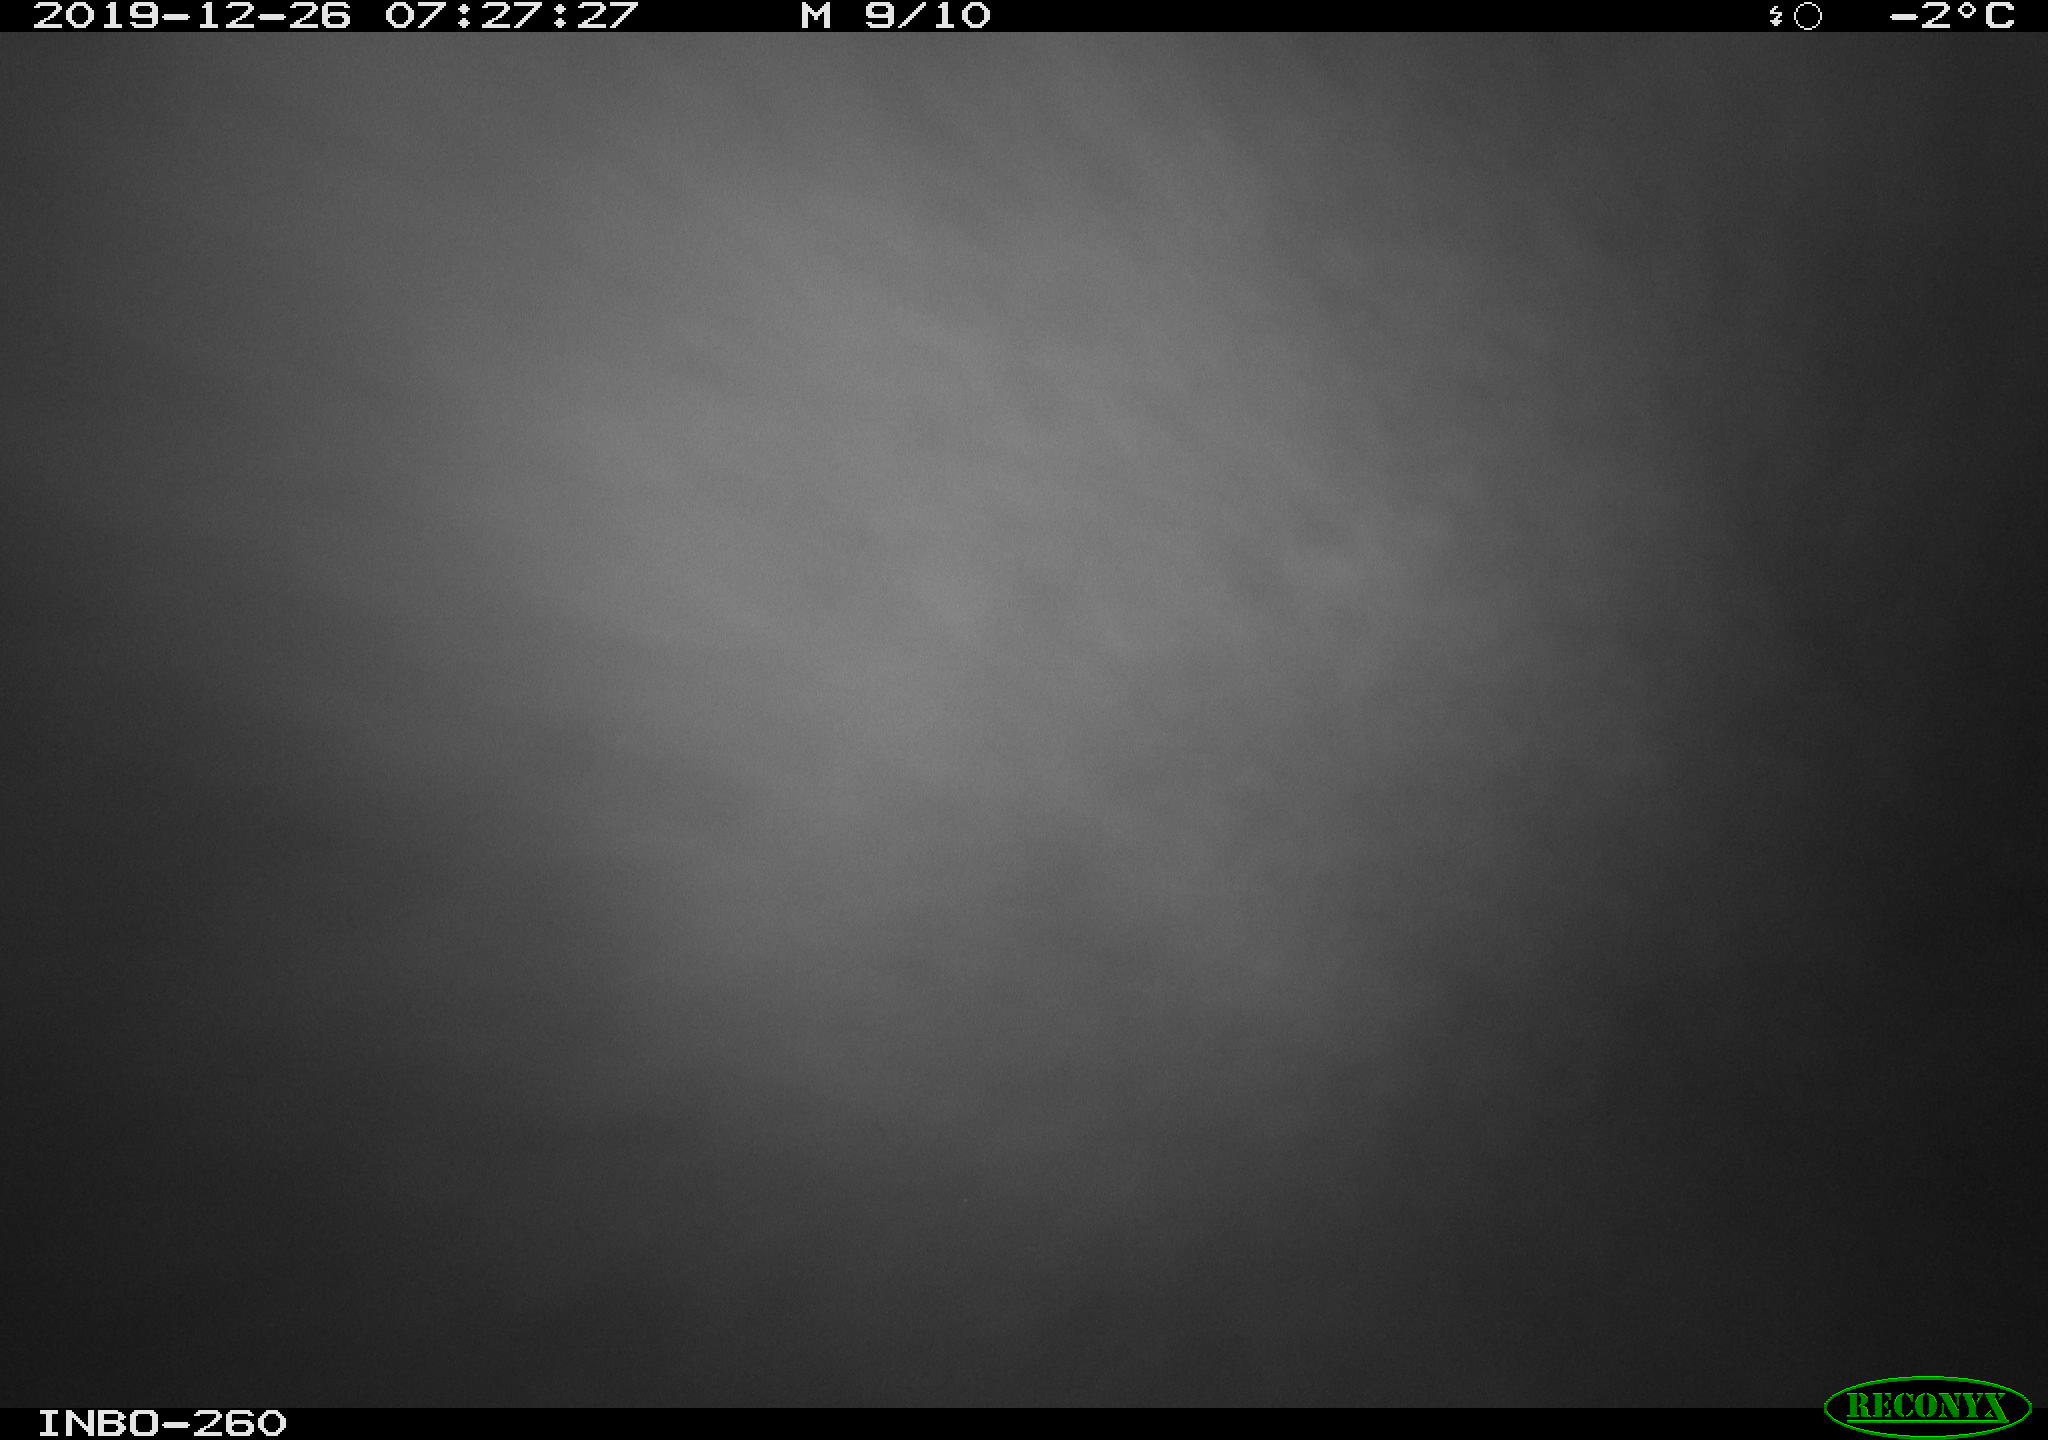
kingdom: Animalia
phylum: Chordata
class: Aves
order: Anseriformes
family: Anatidae
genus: Anas
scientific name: Anas platyrhynchos
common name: Mallard
